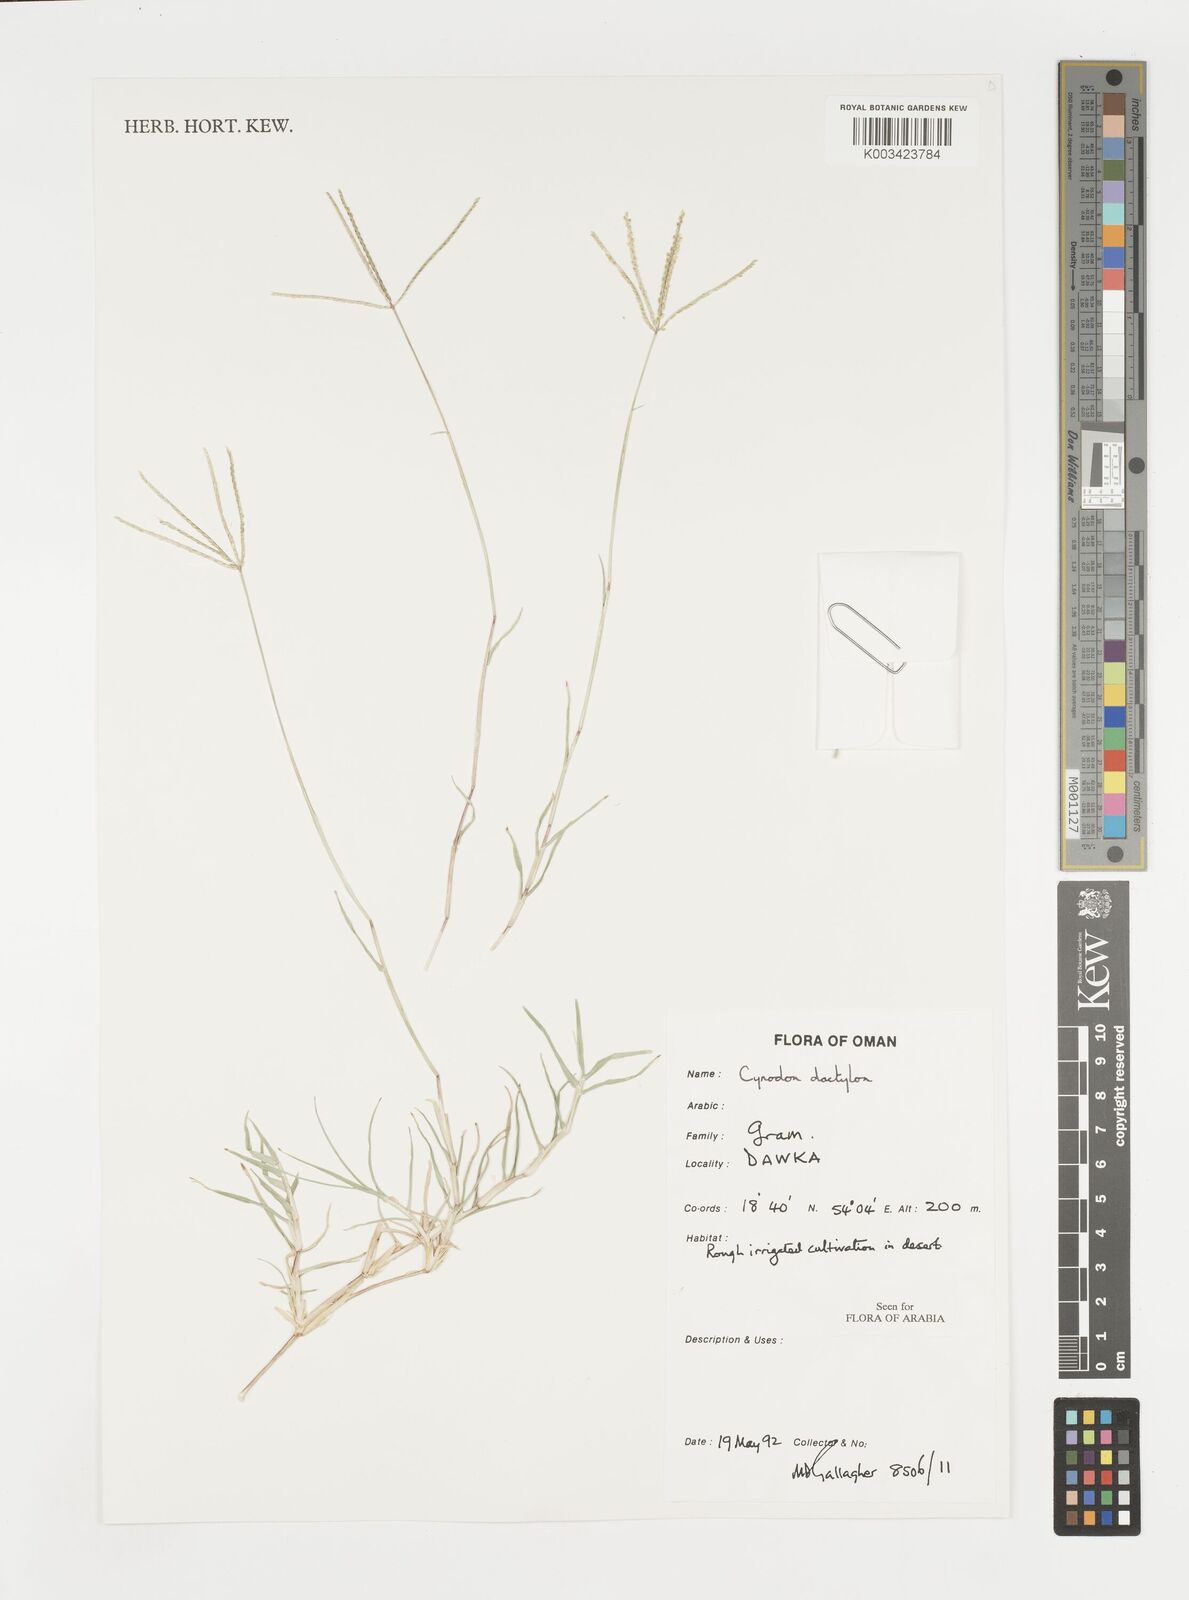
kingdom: Plantae
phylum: Tracheophyta
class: Liliopsida
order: Poales
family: Poaceae
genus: Cynodon
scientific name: Cynodon dactylon
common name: Bermuda grass
